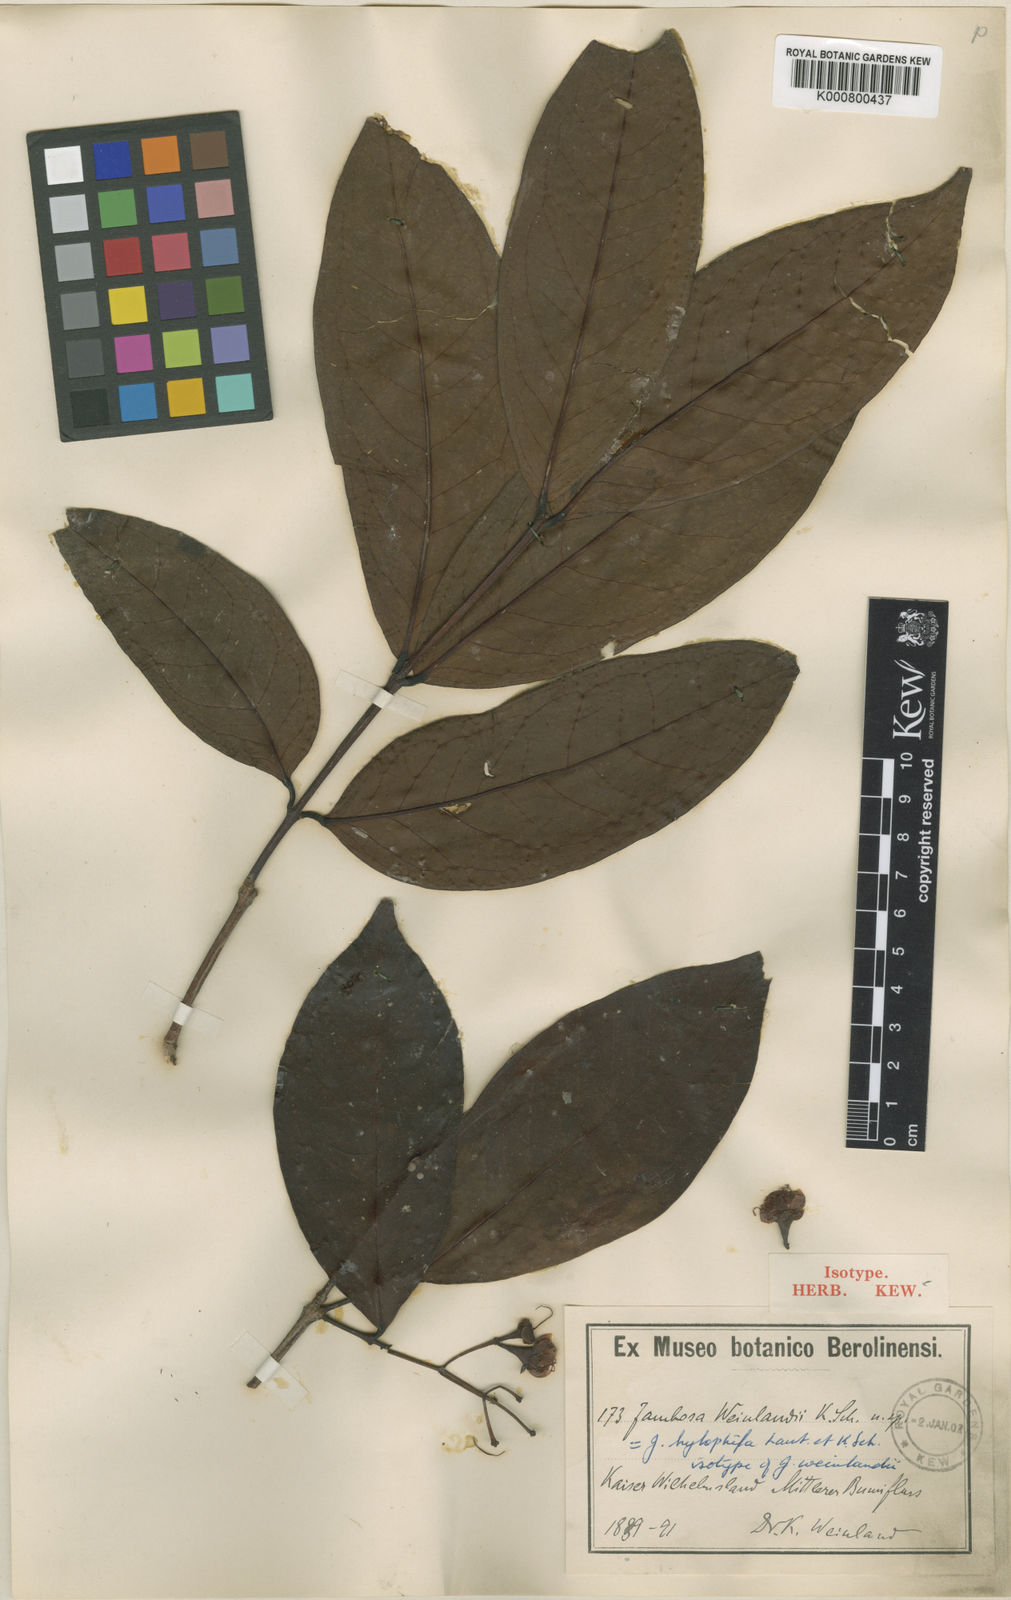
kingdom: Plantae
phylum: Tracheophyta
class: Magnoliopsida
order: Myrtales
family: Myrtaceae
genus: Syzygium
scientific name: Syzygium hylophilum
